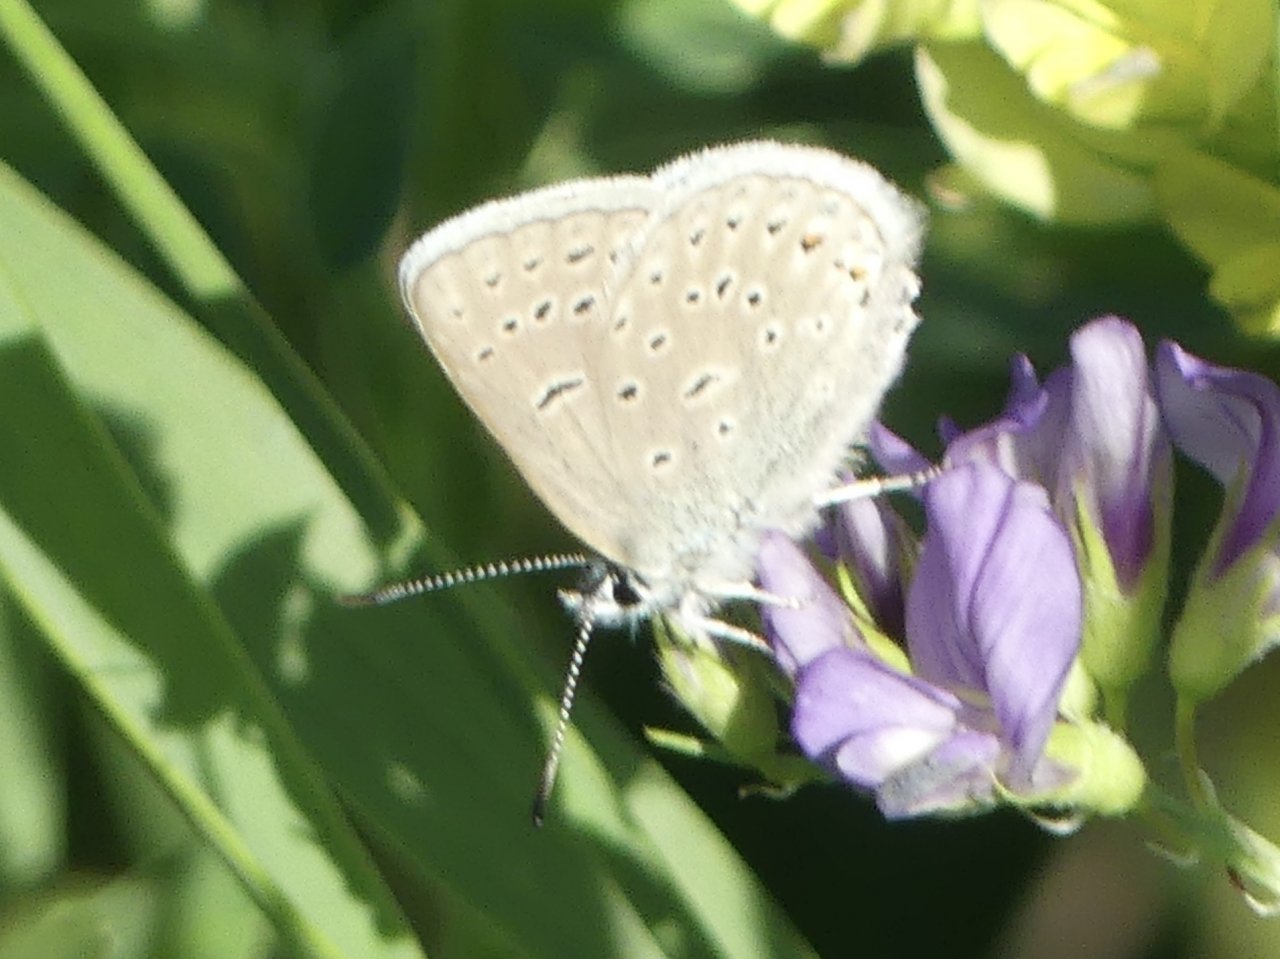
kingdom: Animalia
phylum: Arthropoda
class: Insecta
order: Lepidoptera
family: Lycaenidae
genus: Plebejus
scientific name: Plebejus saepiolus
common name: Greenish Blue
